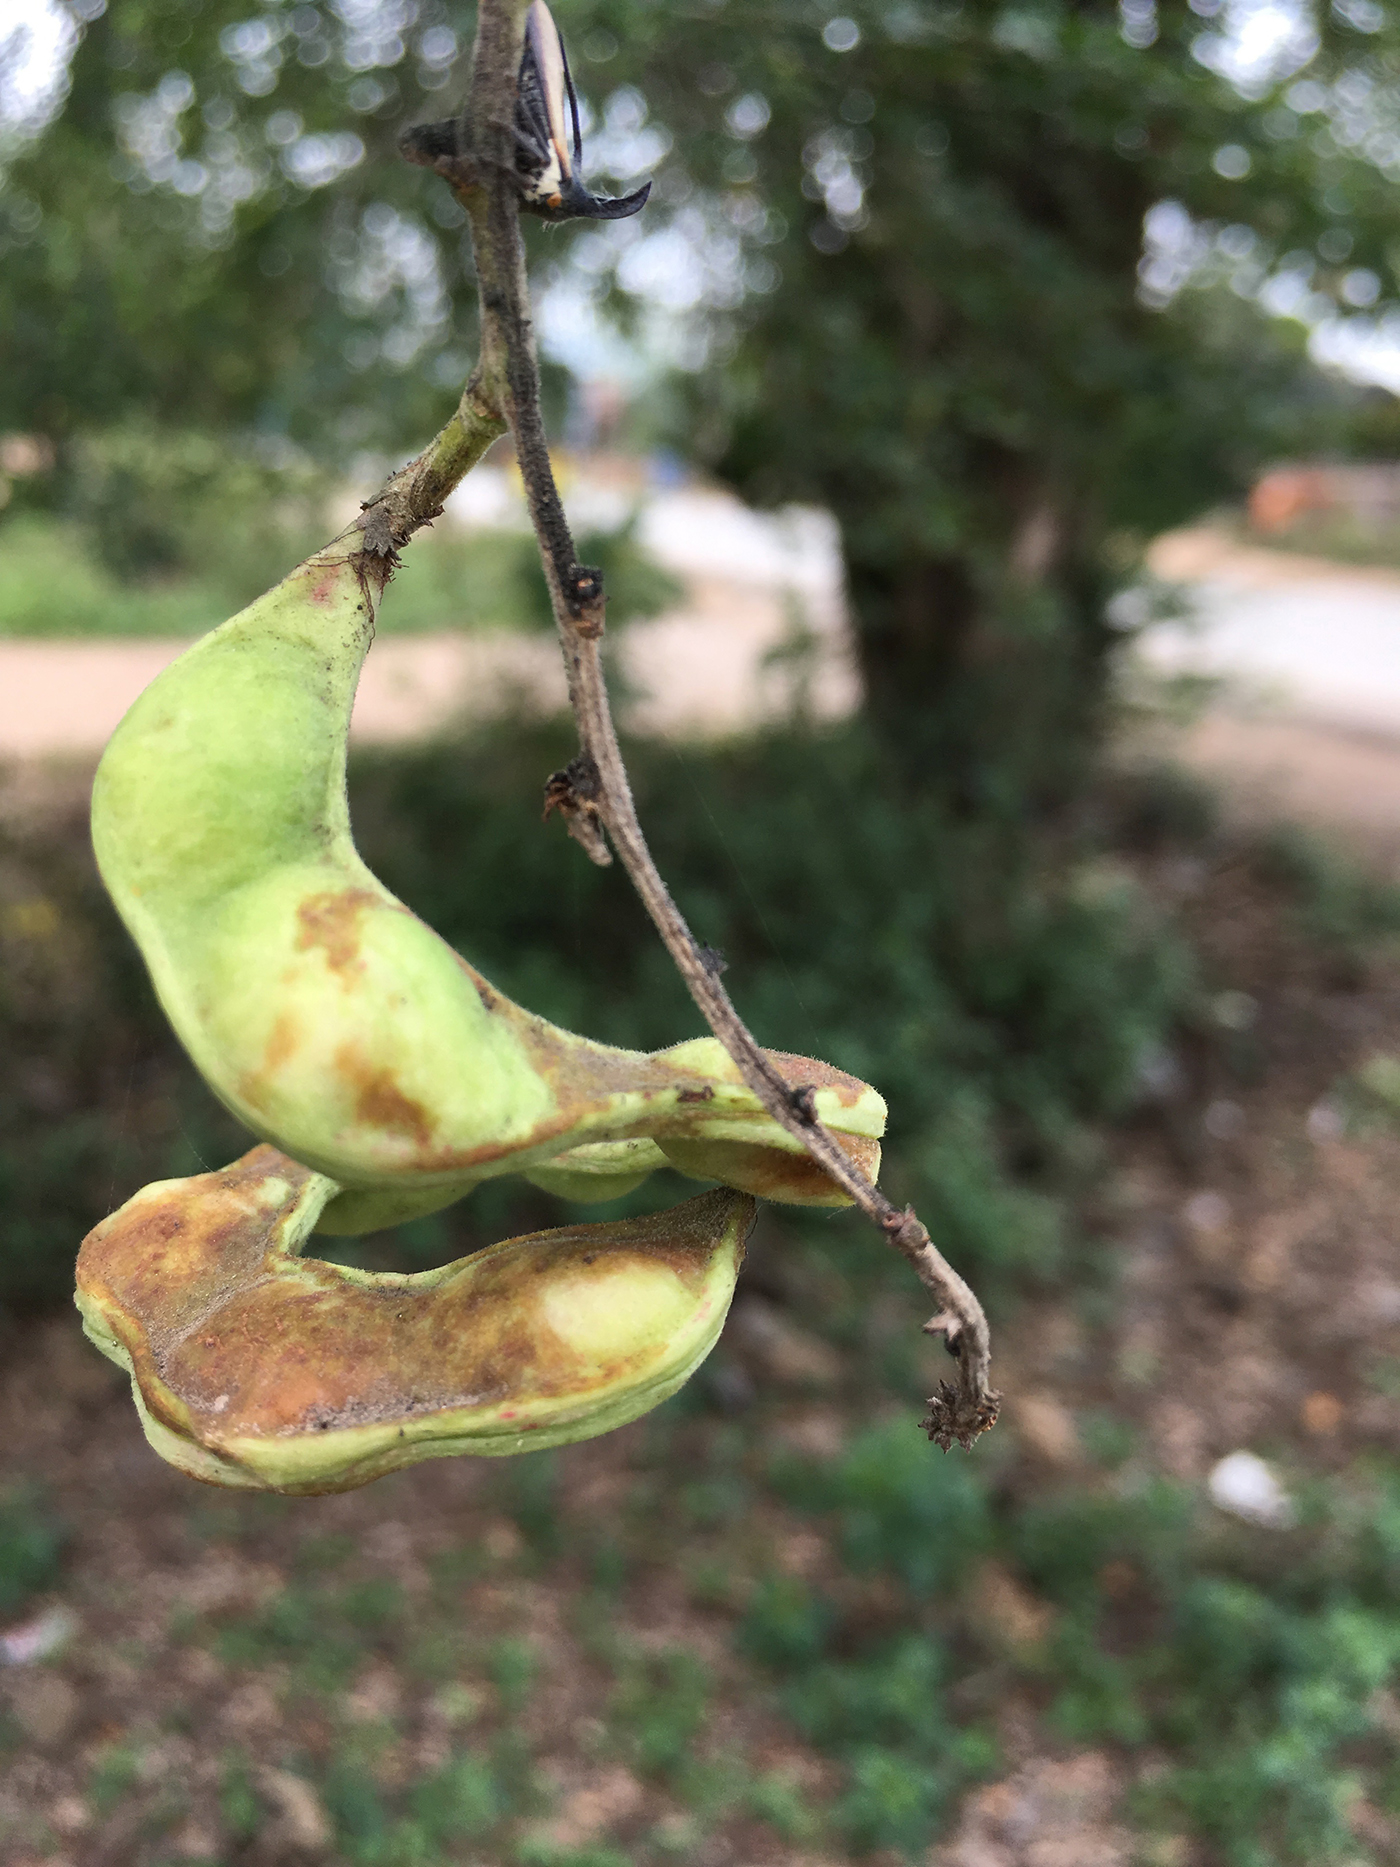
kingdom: Plantae
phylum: Tracheophyta
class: Magnoliopsida
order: Fabales
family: Fabaceae
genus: Pithecellobium
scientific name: Pithecellobium dulce
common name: Monkeypod
